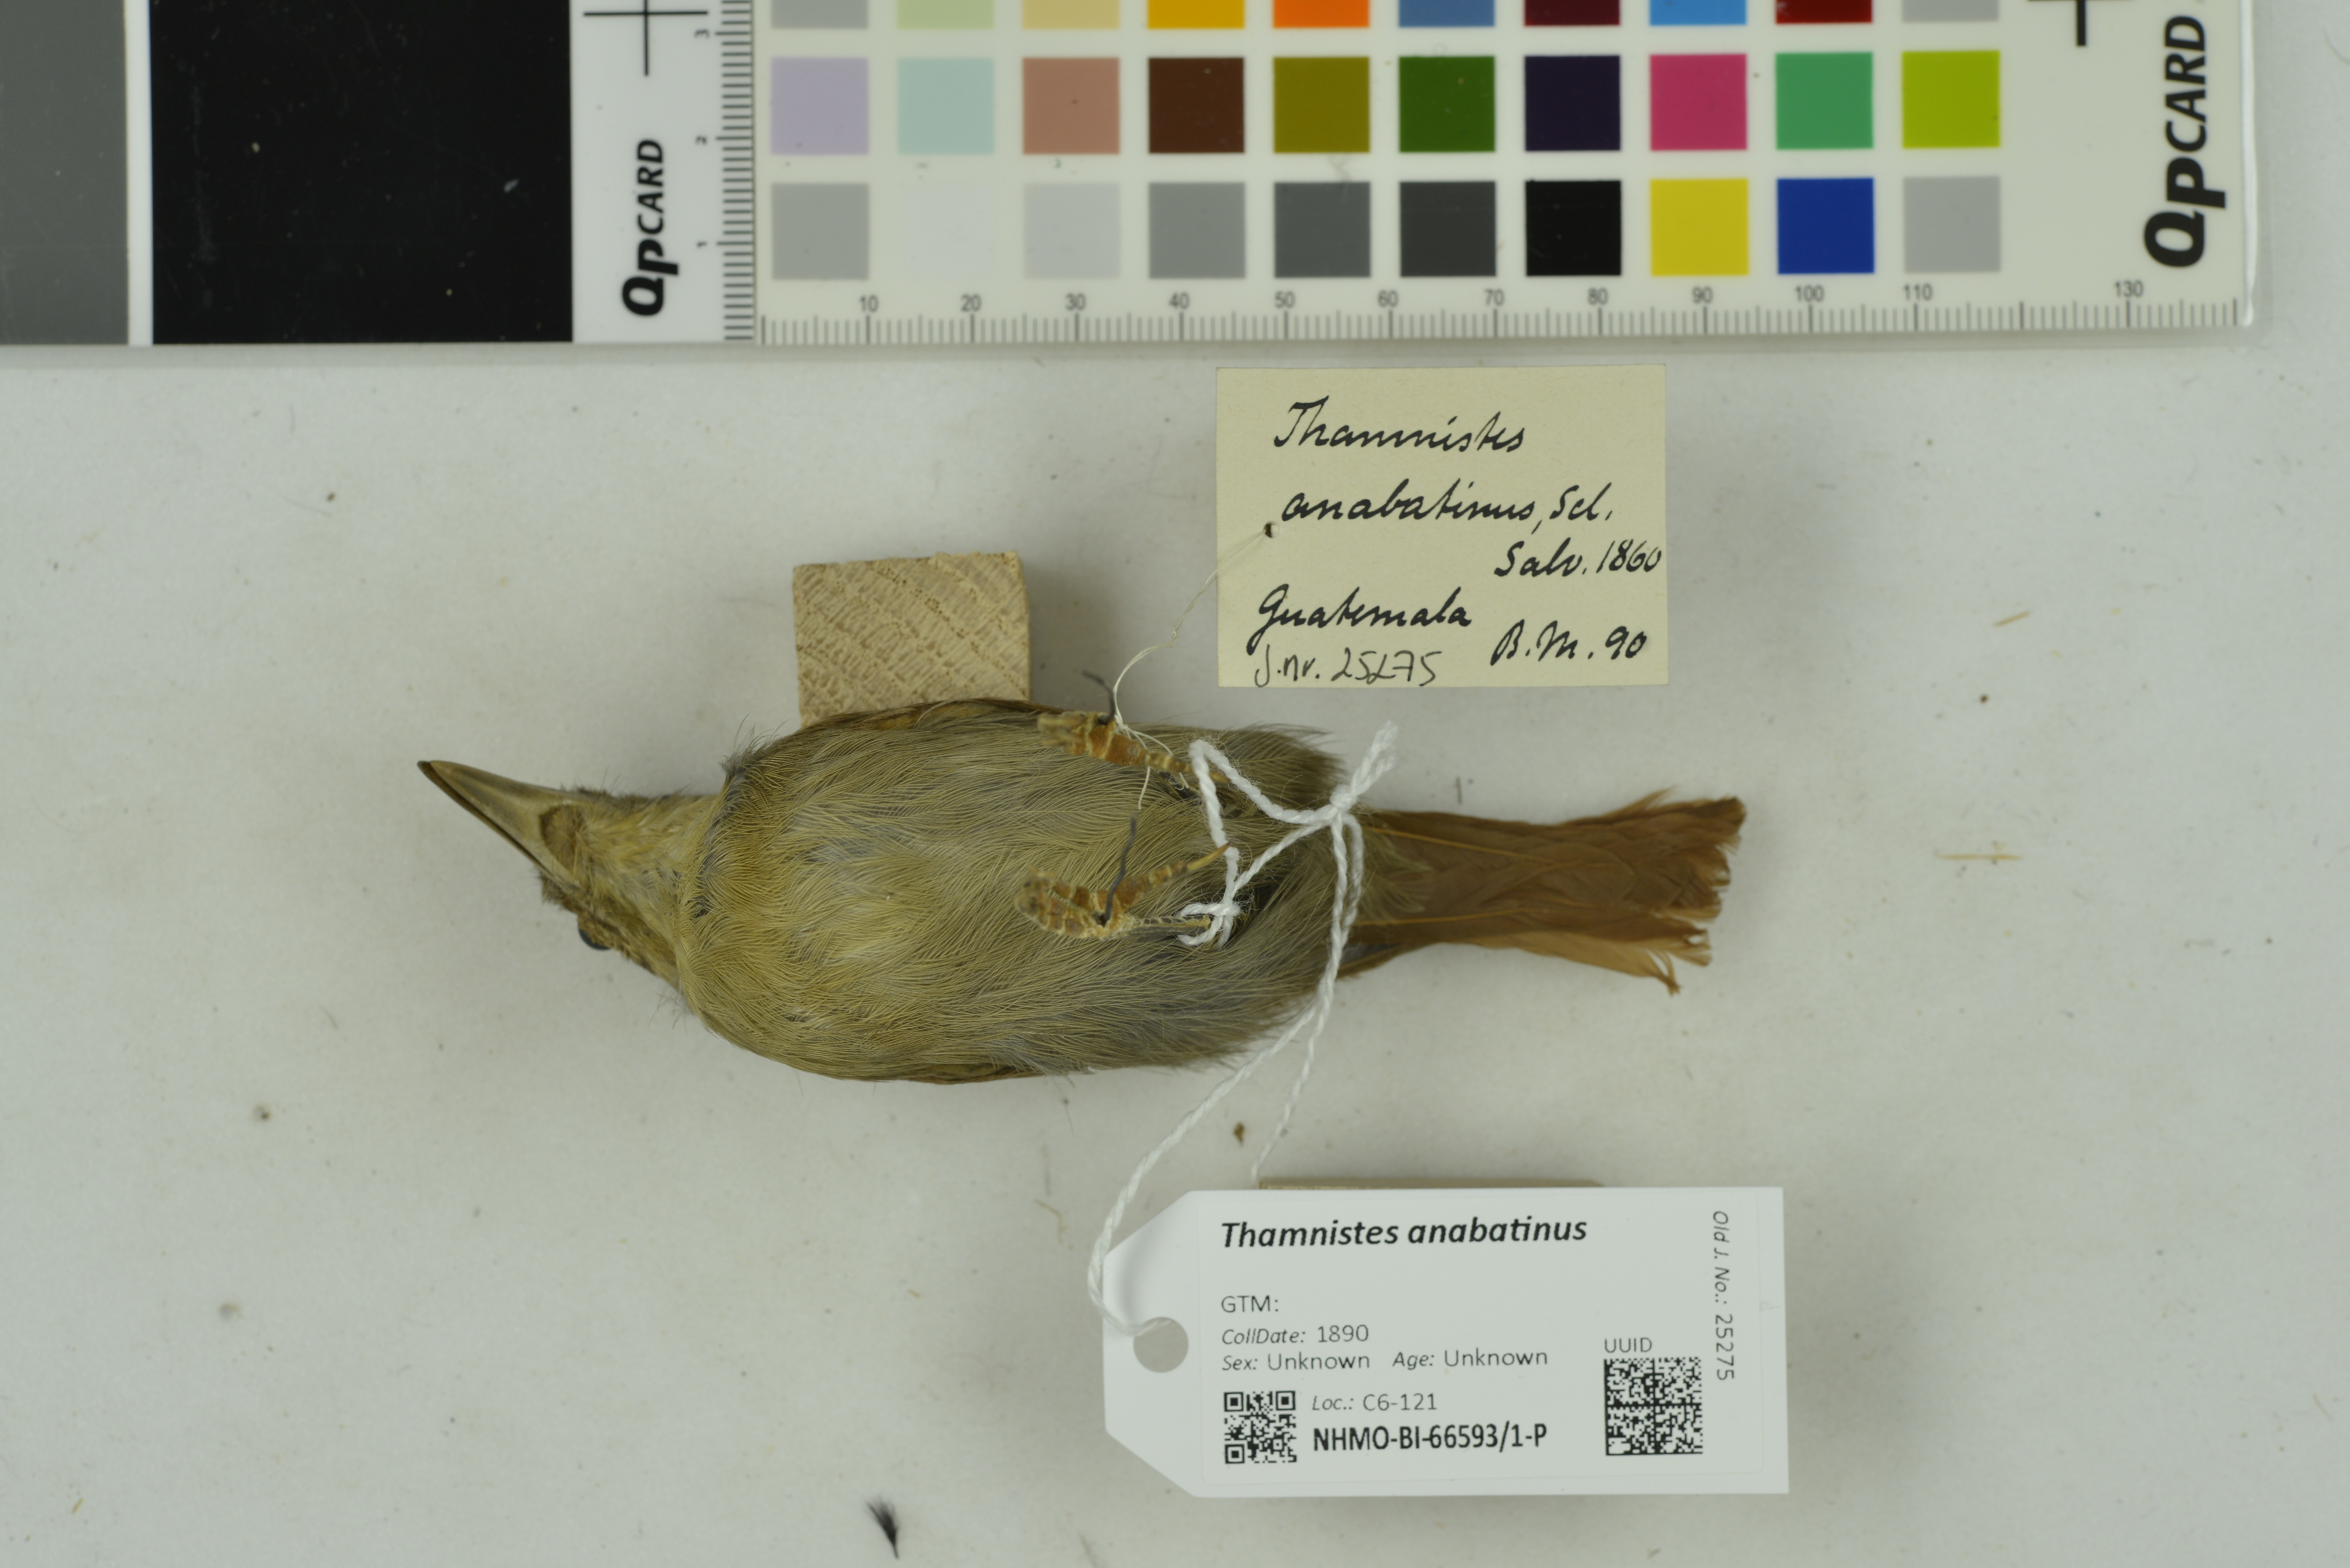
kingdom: Animalia
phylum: Chordata
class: Aves
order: Passeriformes
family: Thamnophilidae
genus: Thamnistes
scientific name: Thamnistes anabatinus
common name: Russet antshrike
